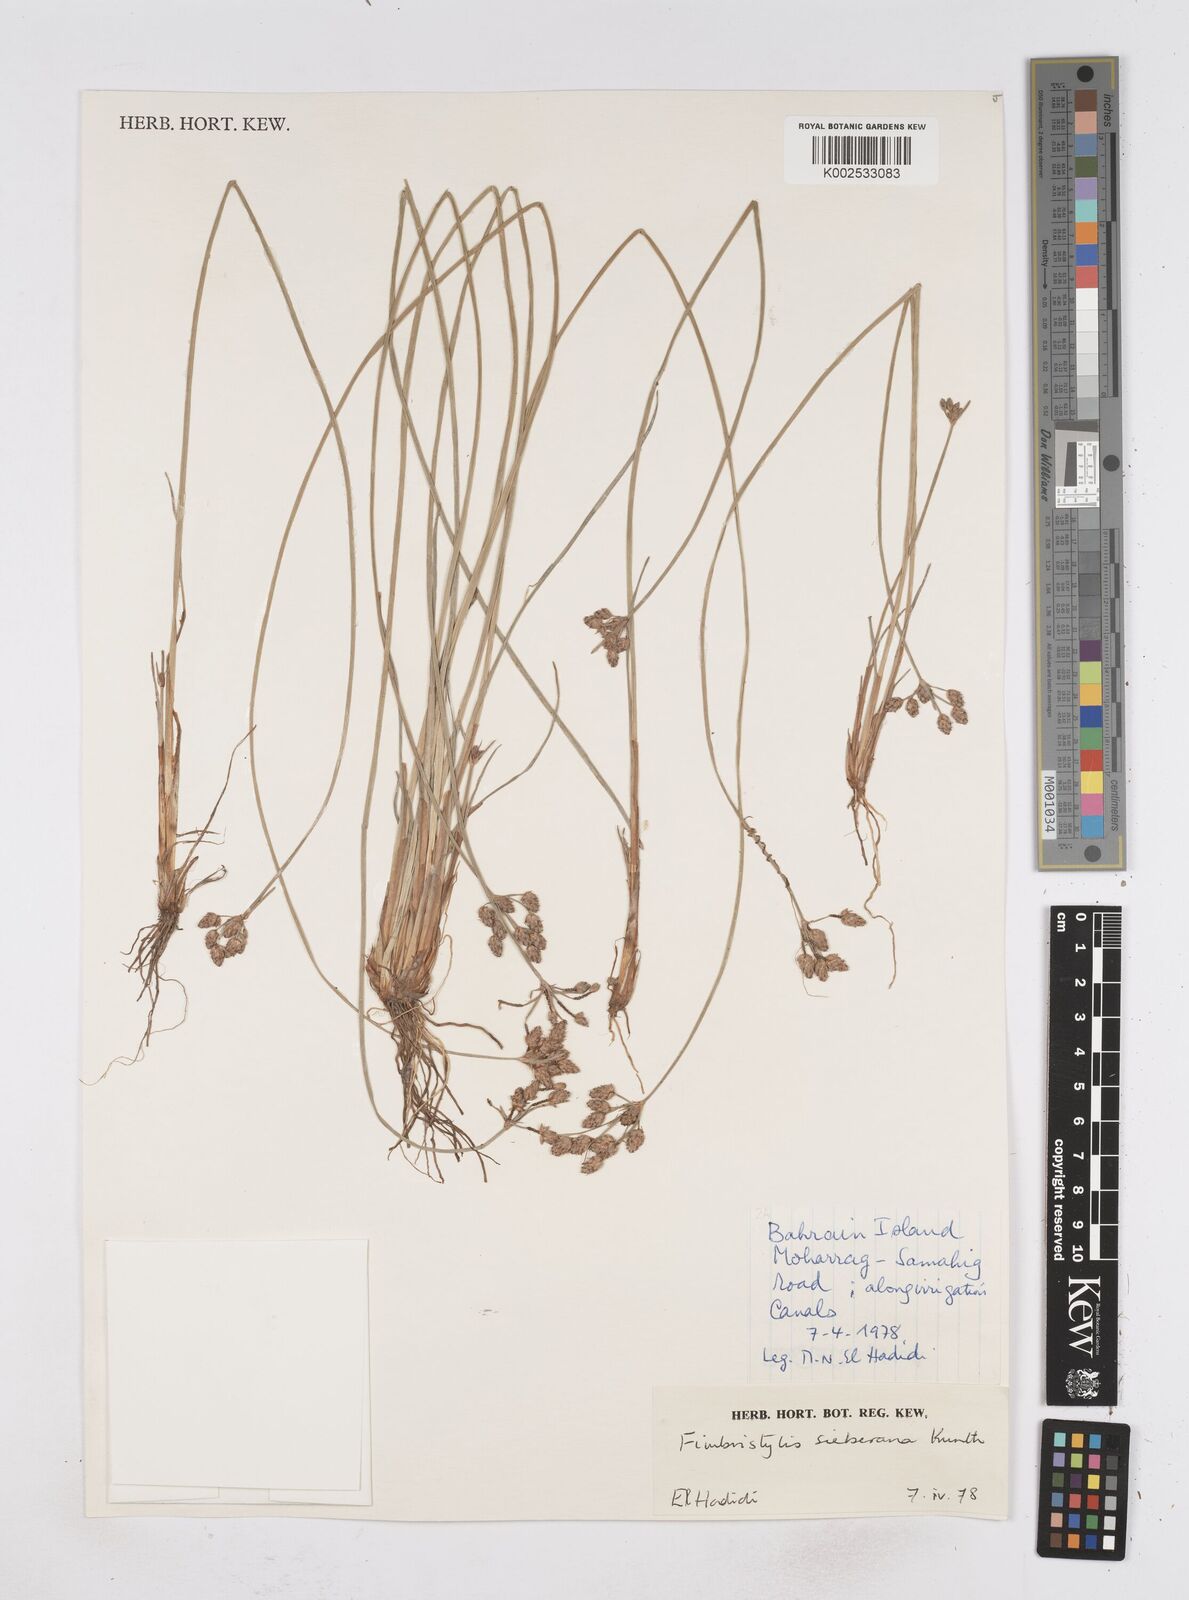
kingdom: Plantae
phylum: Tracheophyta
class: Liliopsida
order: Poales
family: Cyperaceae
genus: Fimbristylis
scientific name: Fimbristylis ferruginea
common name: West indian fimbry
